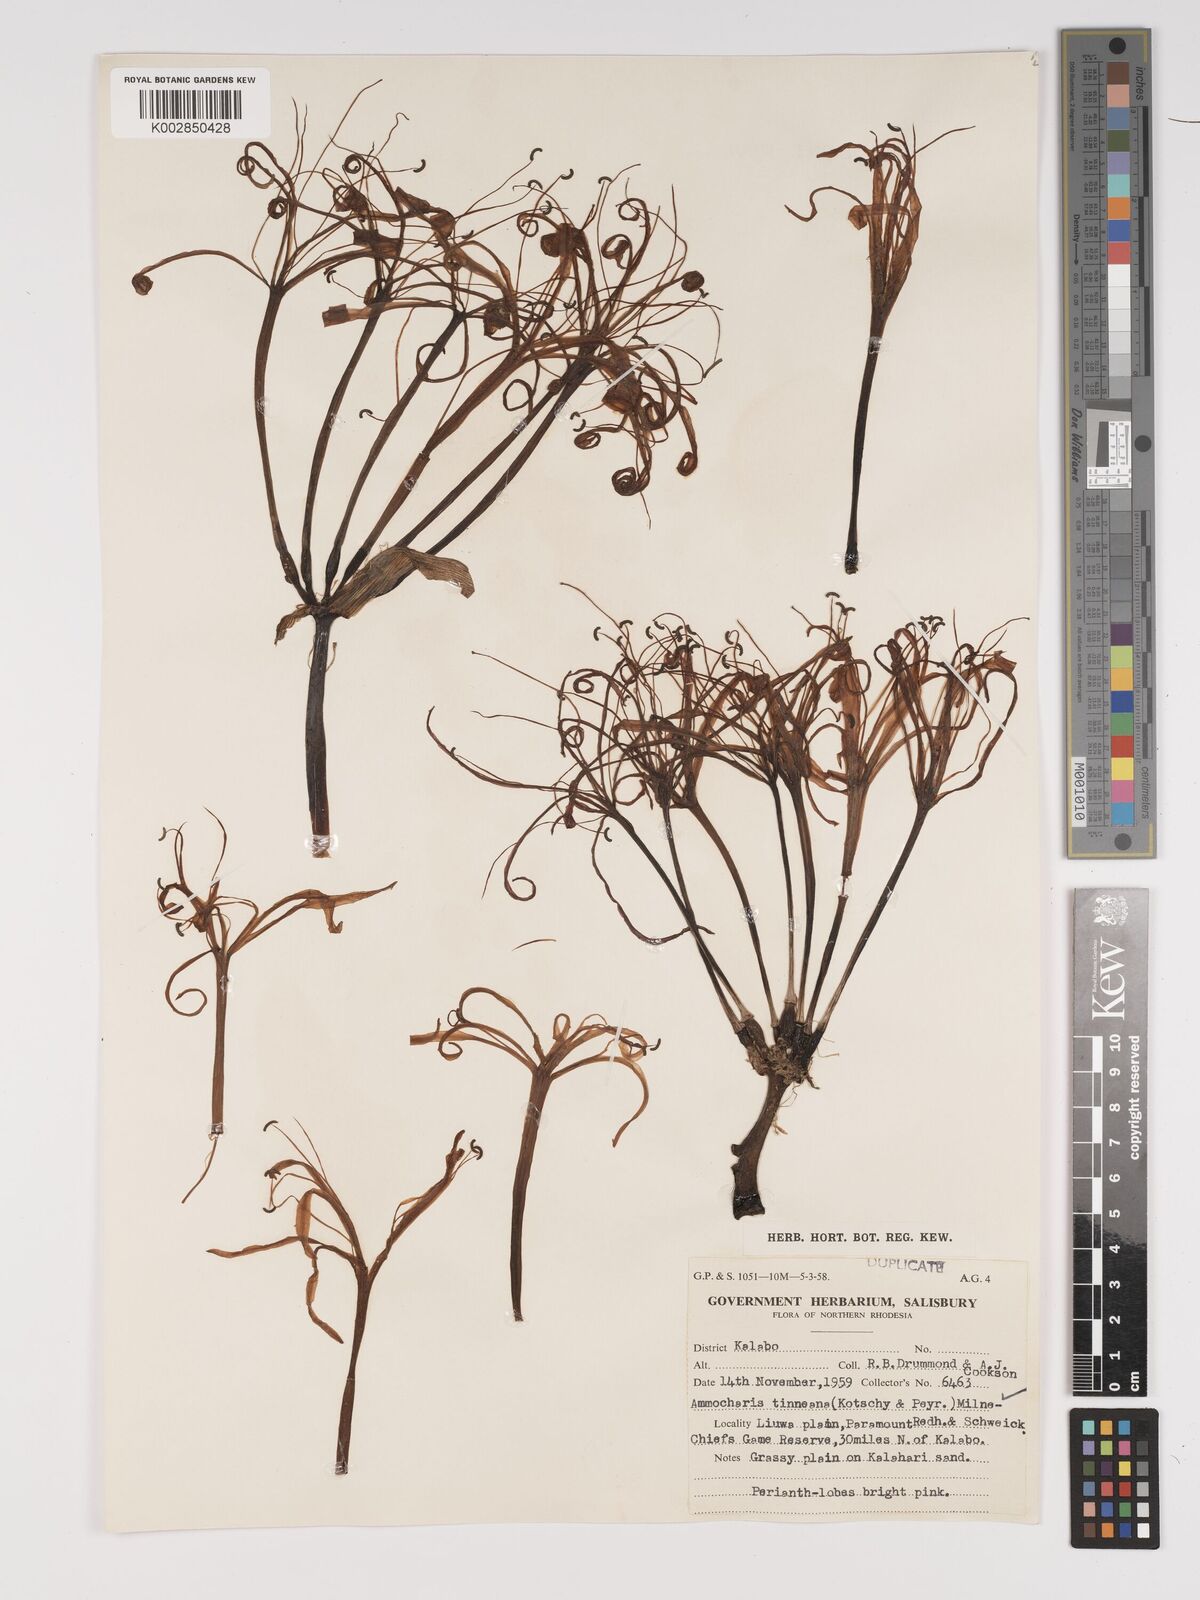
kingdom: Plantae
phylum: Tracheophyta
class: Liliopsida
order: Asparagales
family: Amaryllidaceae
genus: Ammocharis
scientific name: Ammocharis tinneana
